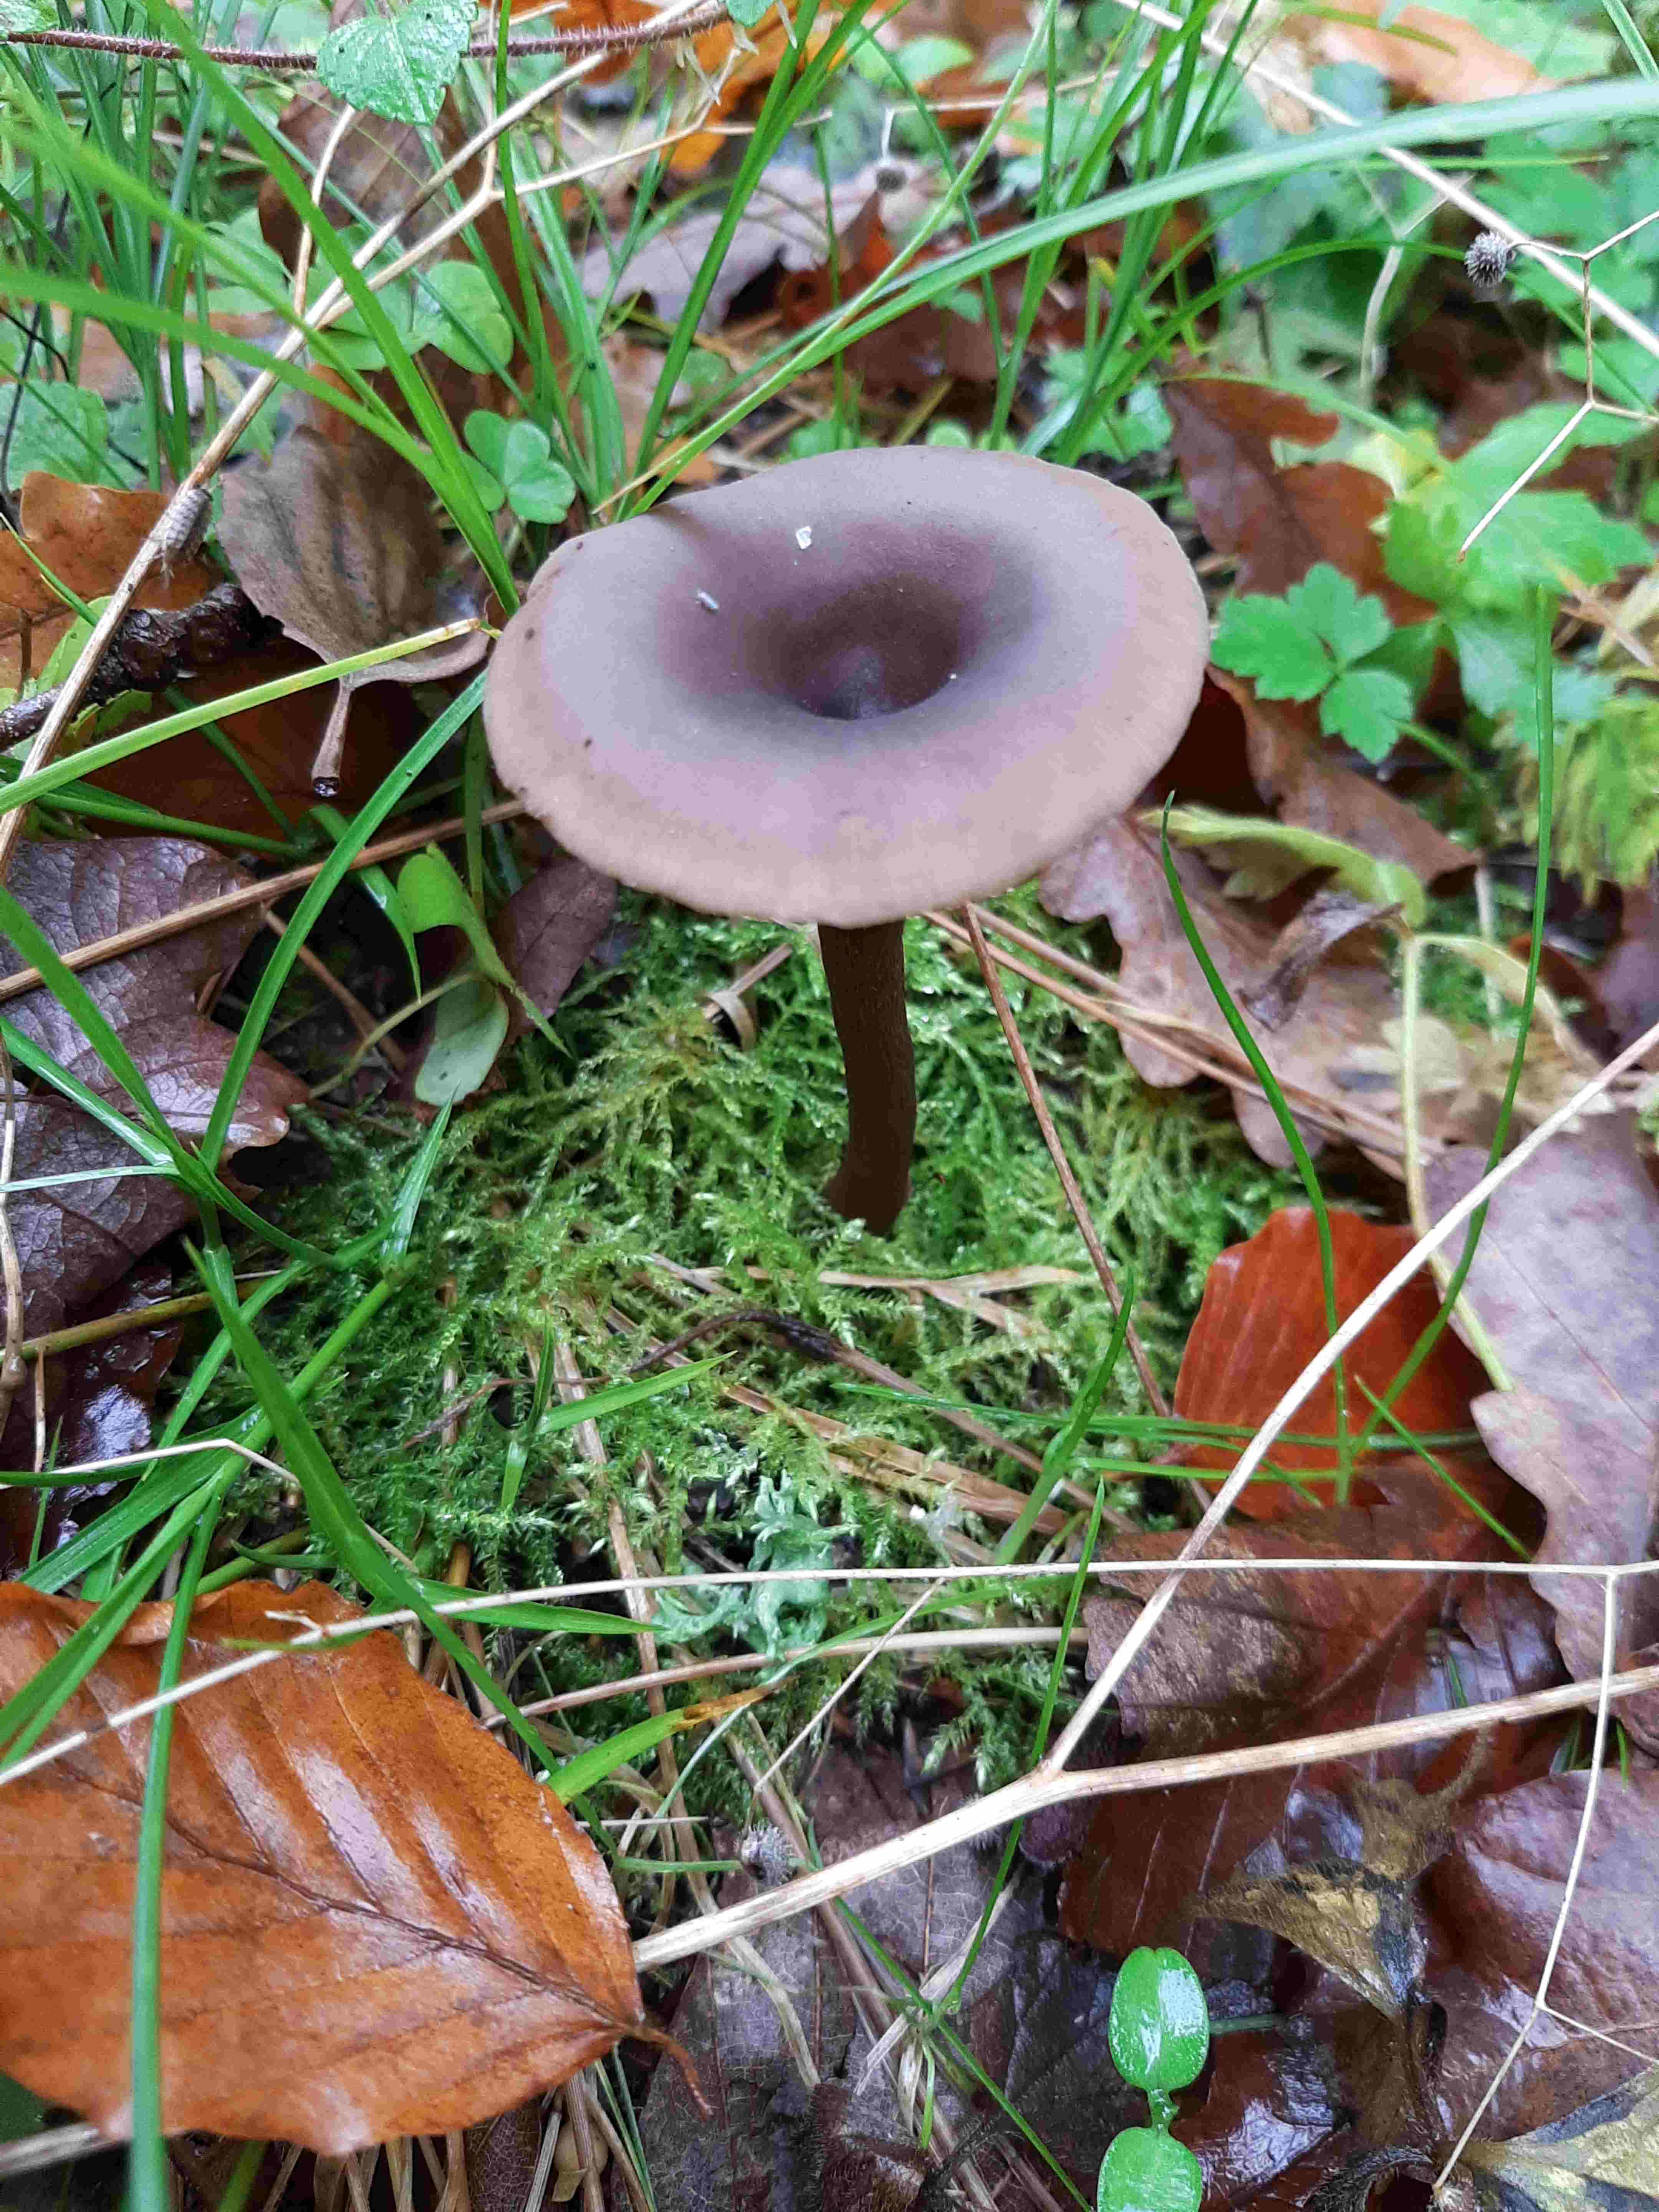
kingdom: Fungi
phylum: Basidiomycota
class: Agaricomycetes
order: Agaricales
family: Pseudoclitocybaceae
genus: Pseudoclitocybe
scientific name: Pseudoclitocybe cyathiformis
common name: almindelig bægertragthat
